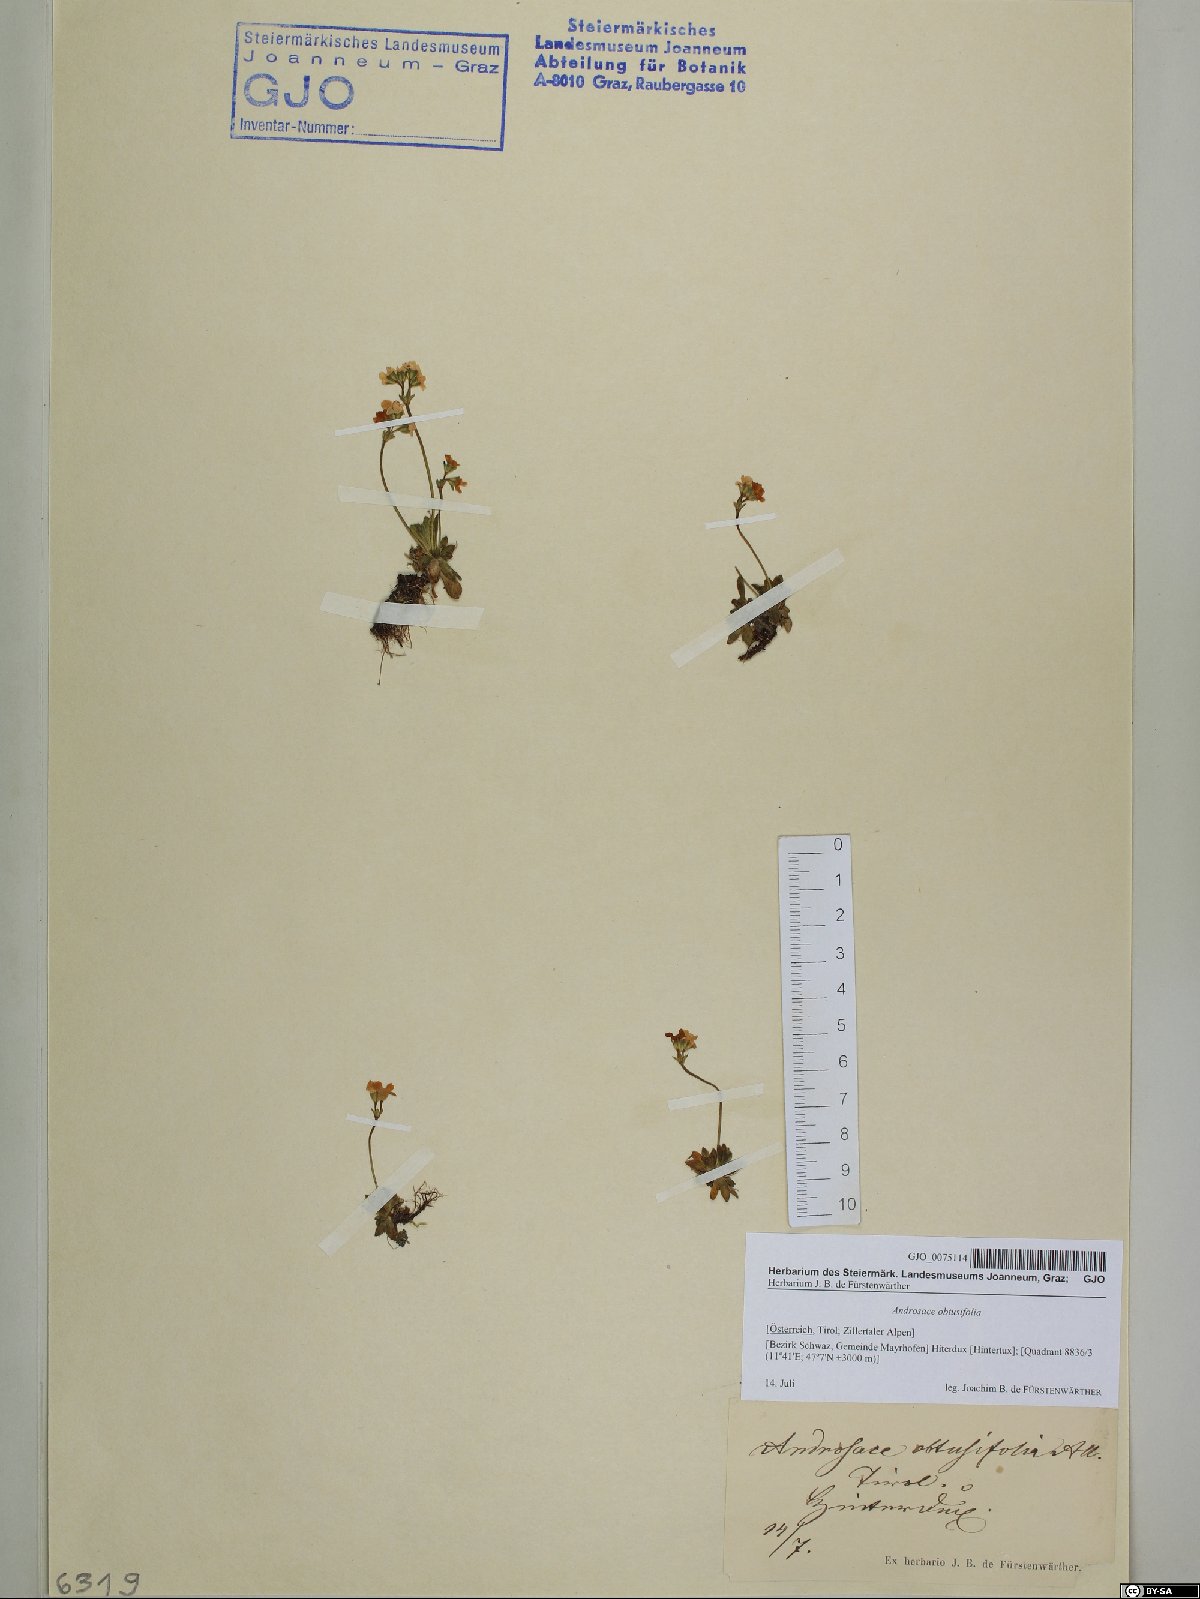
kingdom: Plantae
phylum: Tracheophyta
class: Magnoliopsida
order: Ericales
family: Primulaceae
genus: Androsace
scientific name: Androsace obtusifolia
